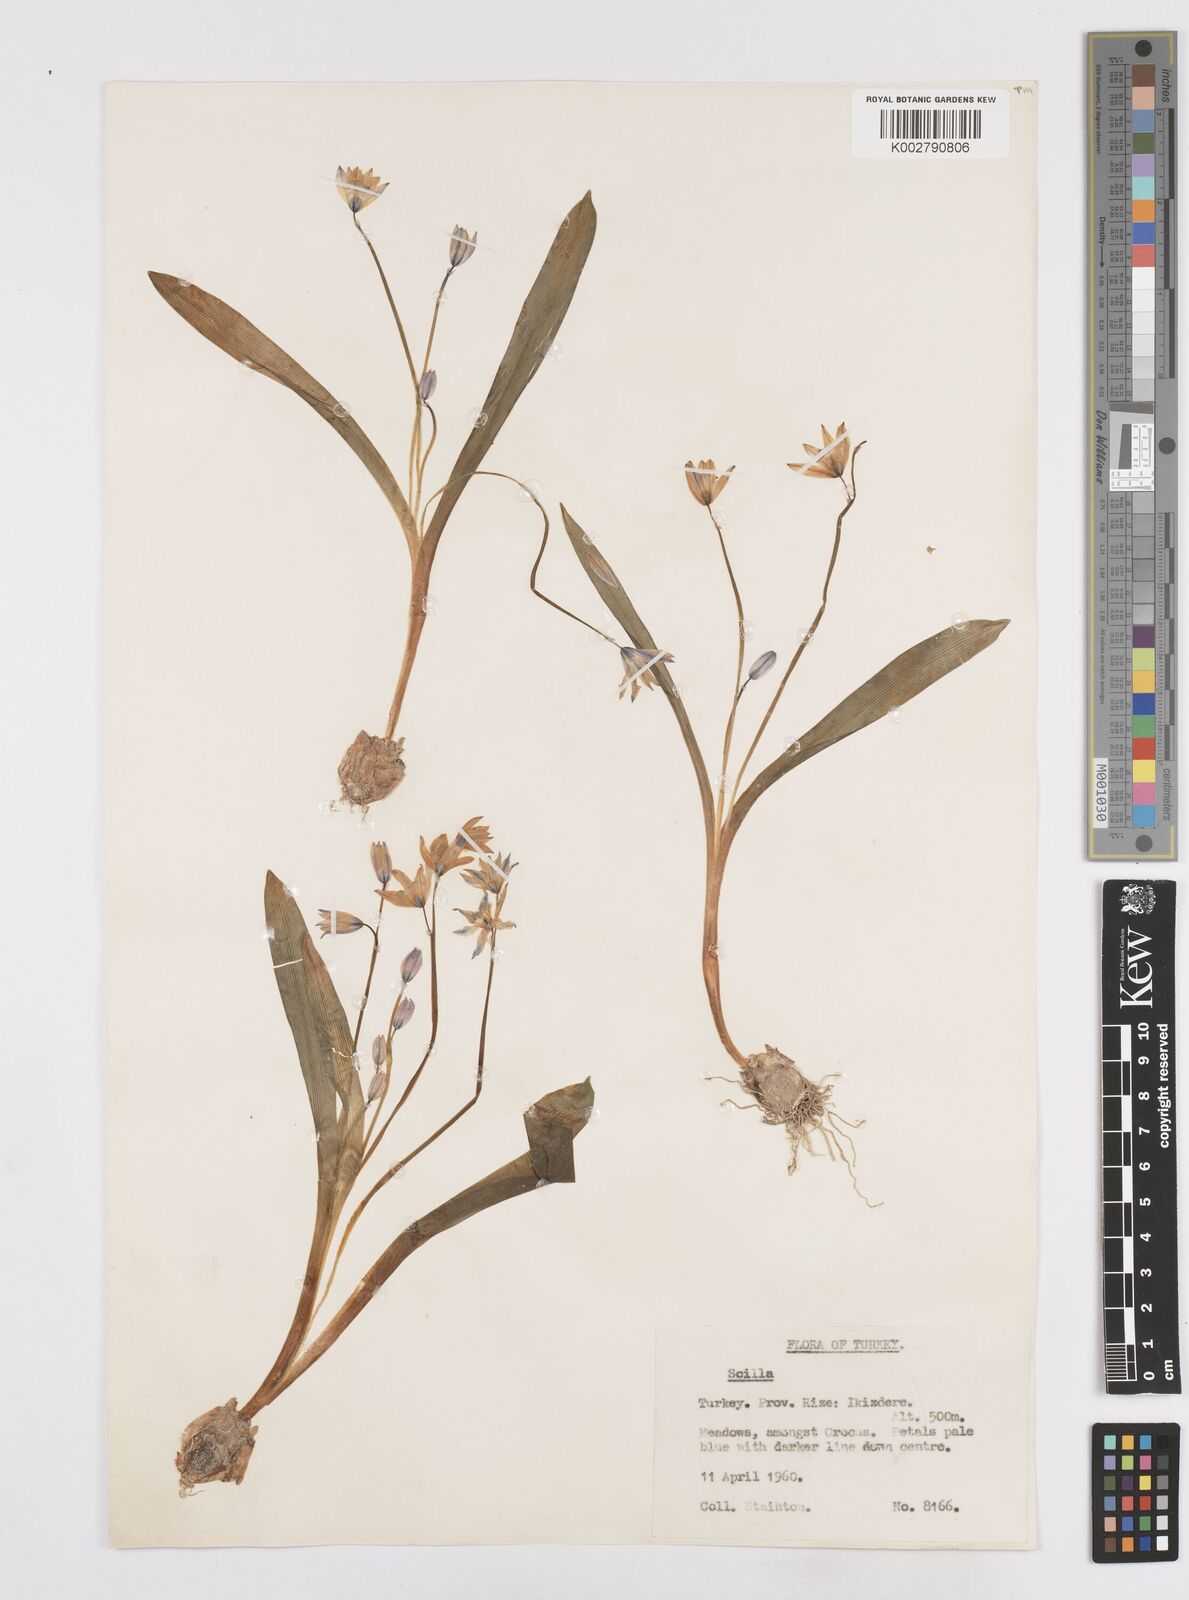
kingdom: Plantae
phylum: Tracheophyta
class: Liliopsida
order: Asparagales
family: Asparagaceae
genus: Scilla
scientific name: Scilla siberica
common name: Siberian squill
